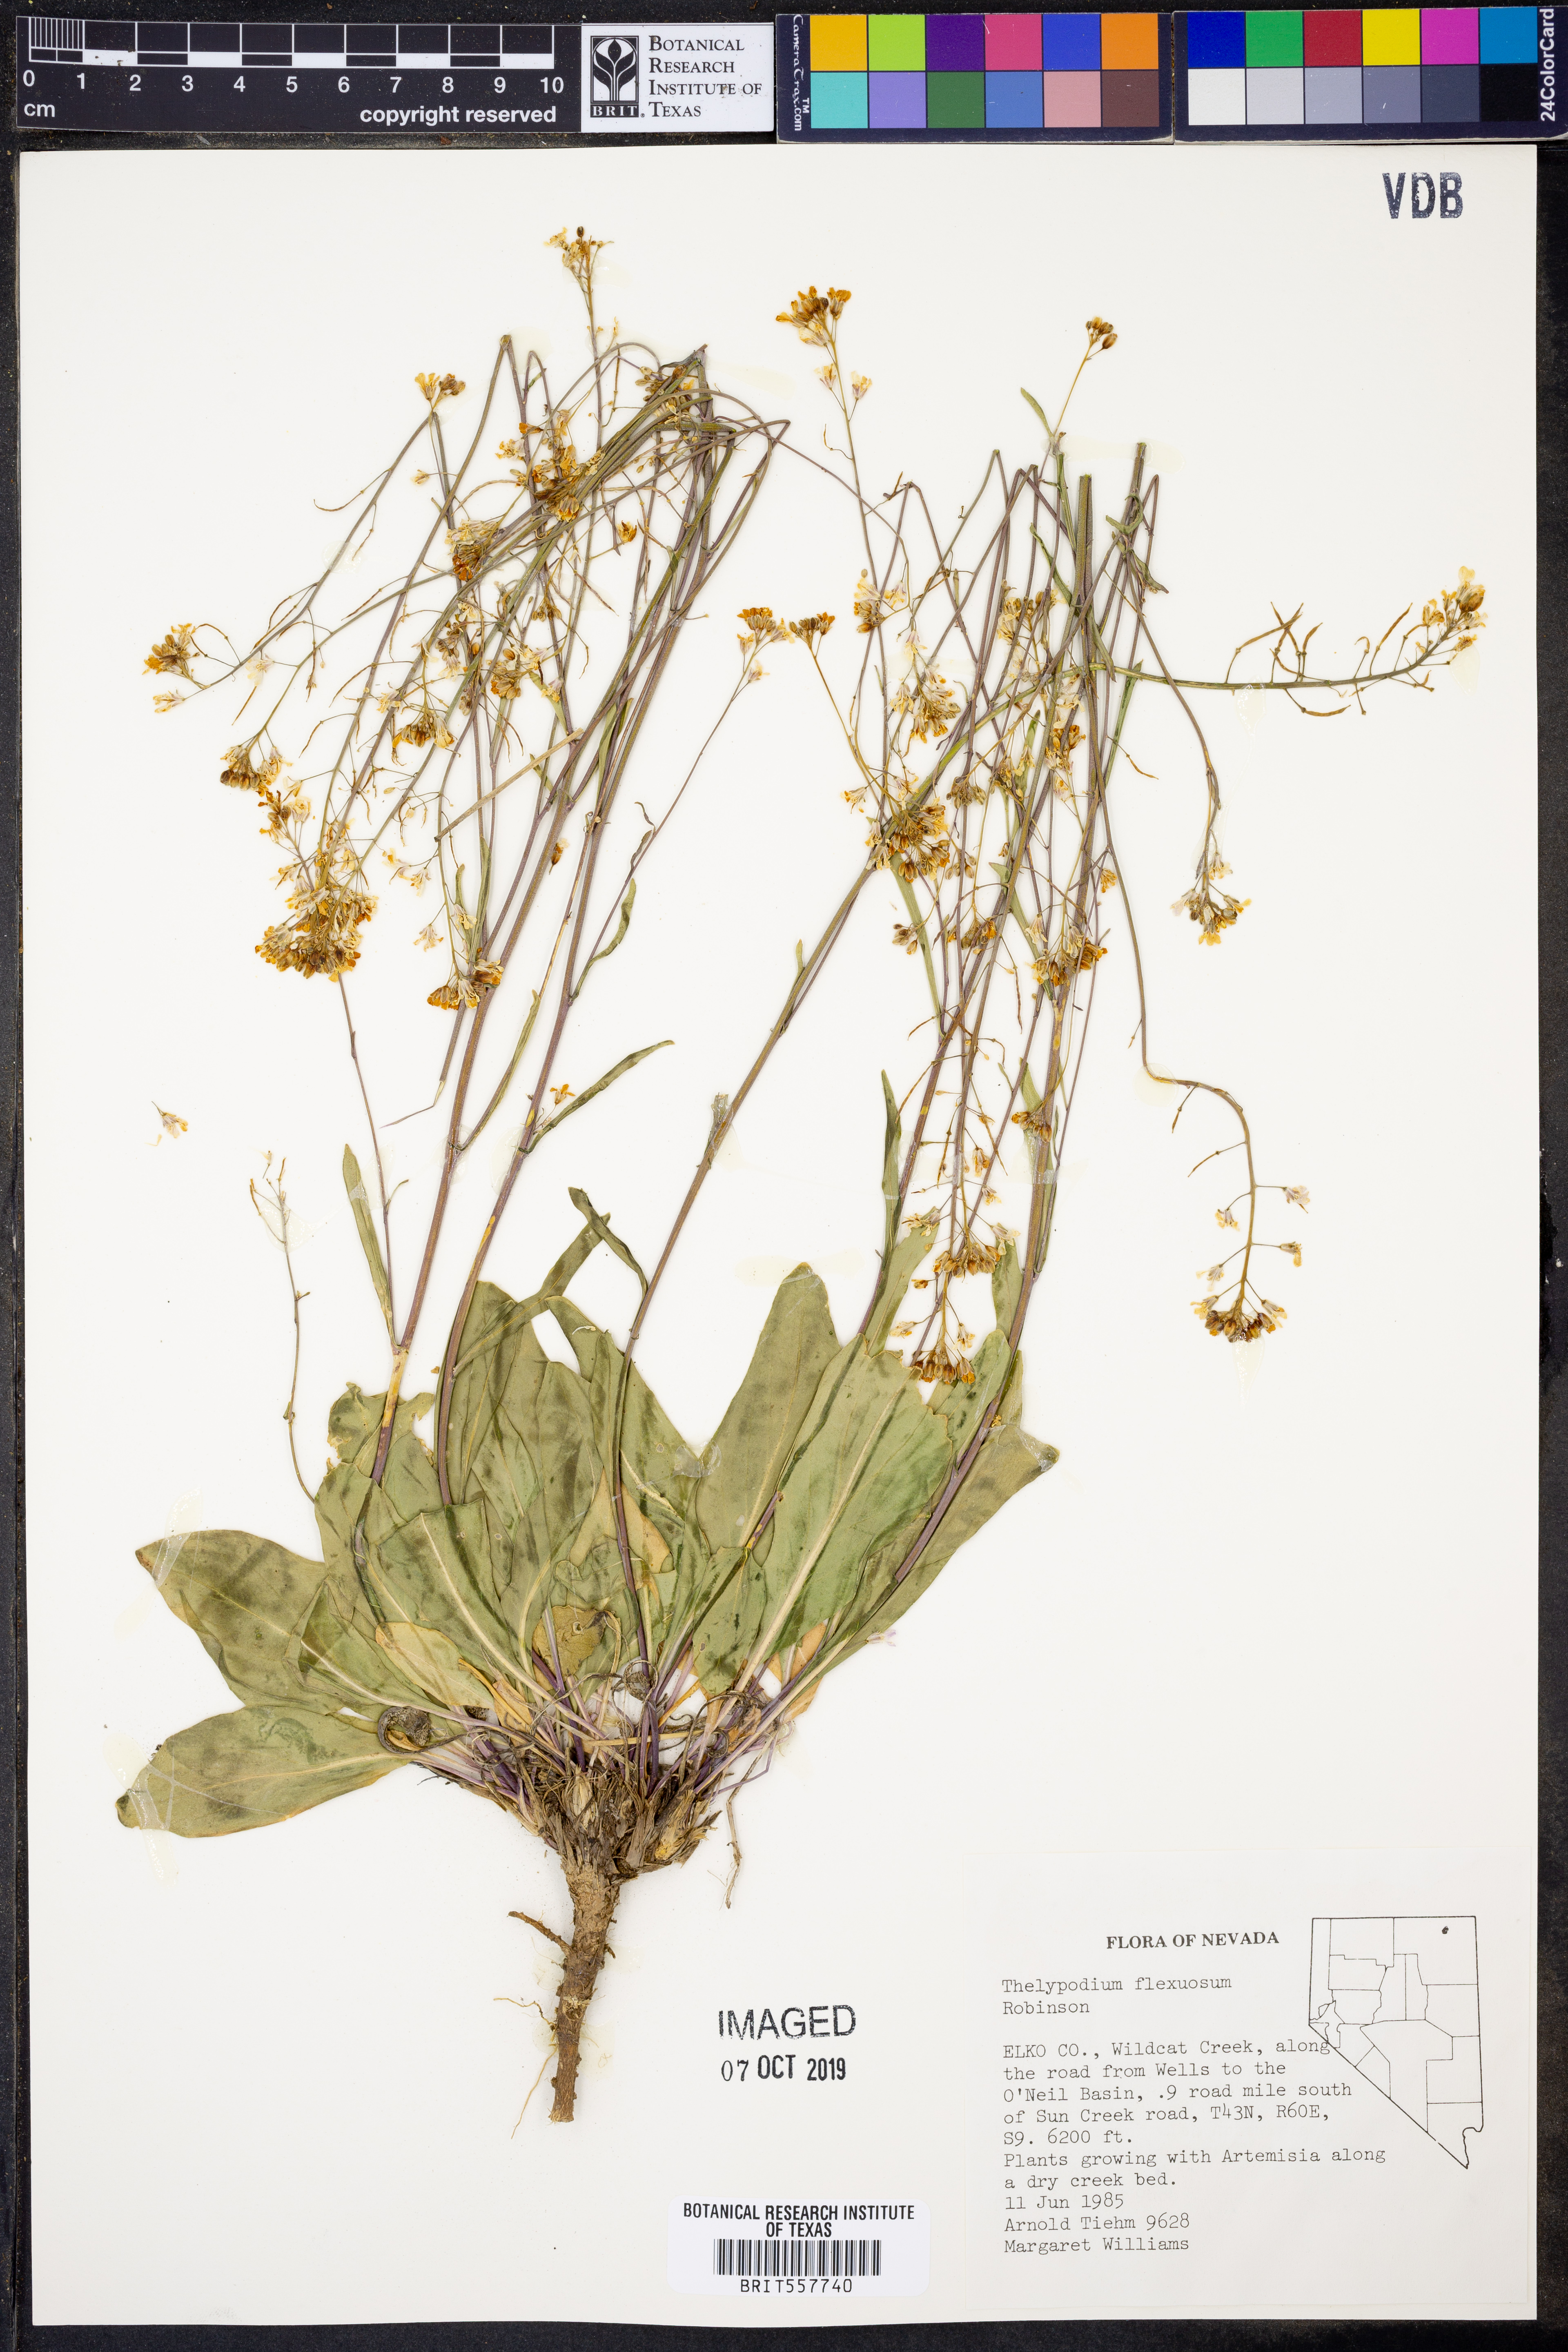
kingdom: Plantae
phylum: Tracheophyta
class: Magnoliopsida
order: Brassicales
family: Brassicaceae
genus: Thelypodium
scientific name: Thelypodium flexuosum
